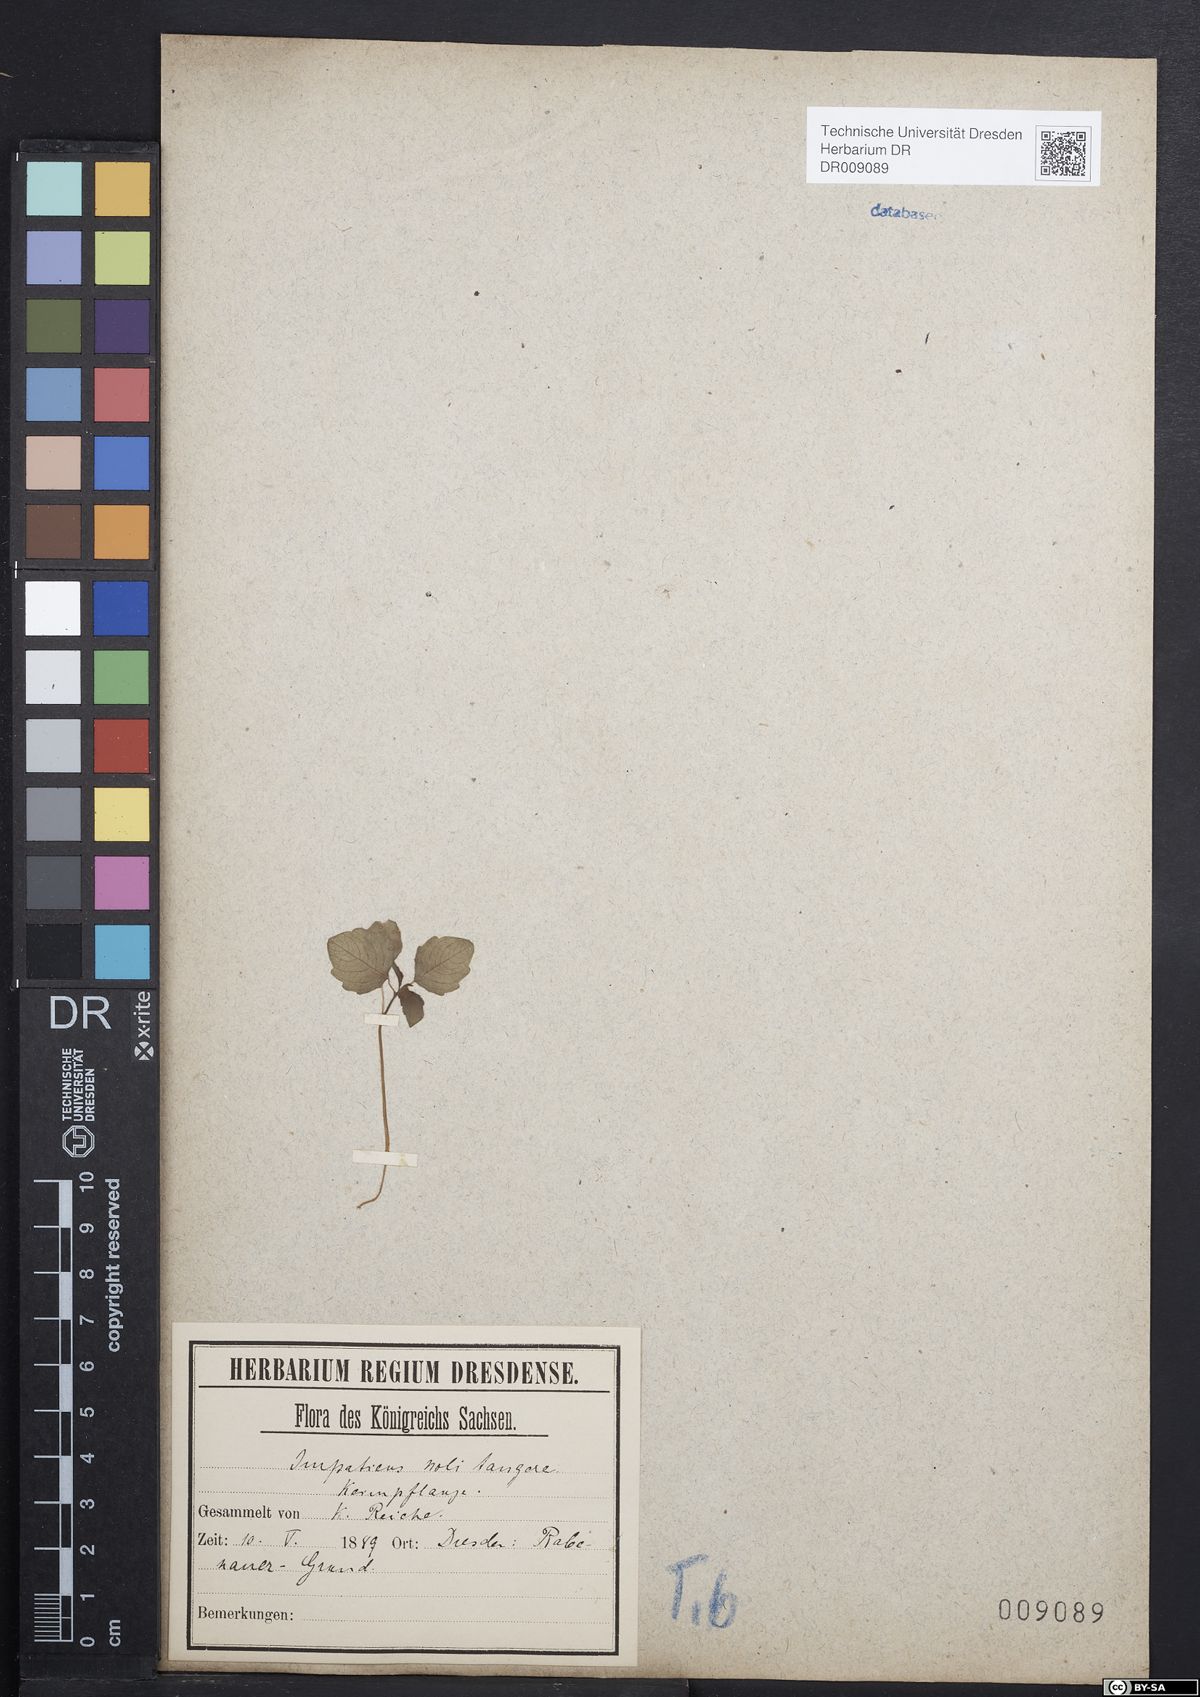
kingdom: Plantae
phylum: Tracheophyta
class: Magnoliopsida
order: Ericales
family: Balsaminaceae
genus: Impatiens
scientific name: Impatiens noli-tangere
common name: Touch-me-not balsam
